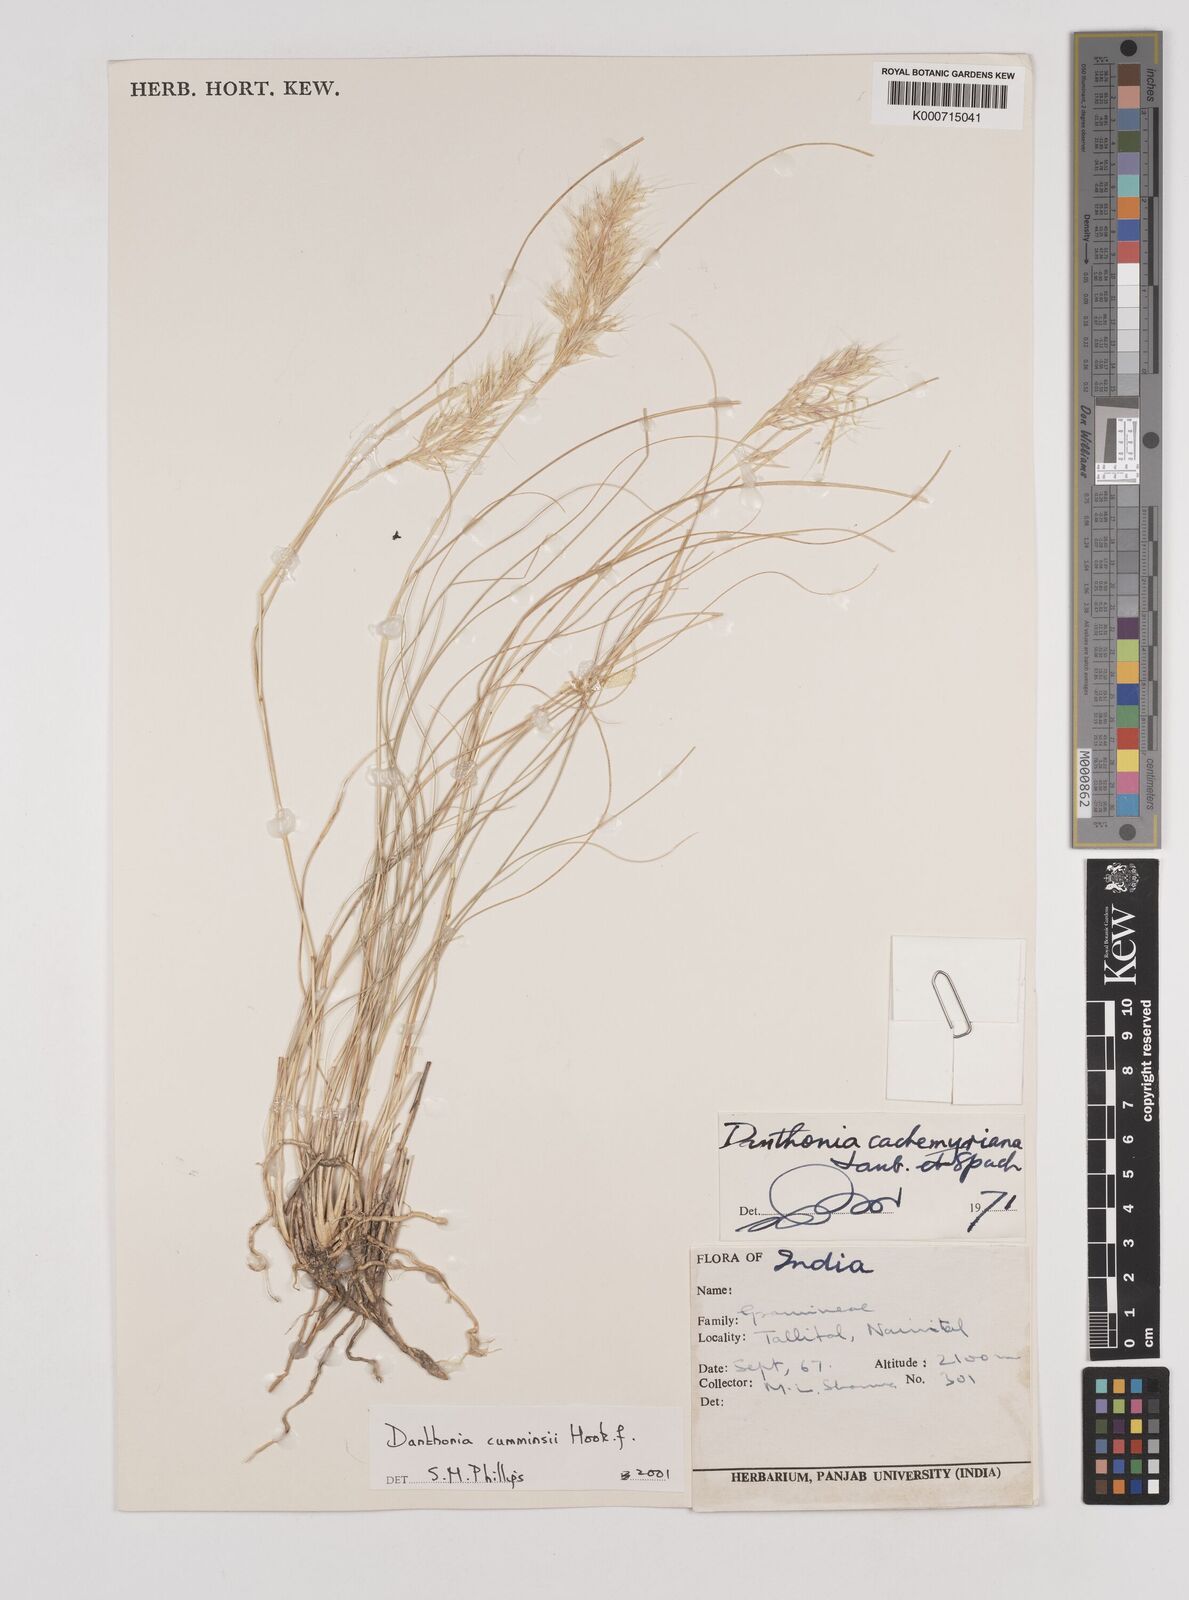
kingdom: Plantae
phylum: Tracheophyta
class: Liliopsida
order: Poales
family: Poaceae
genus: Rytidosperma
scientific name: Rytidosperma
